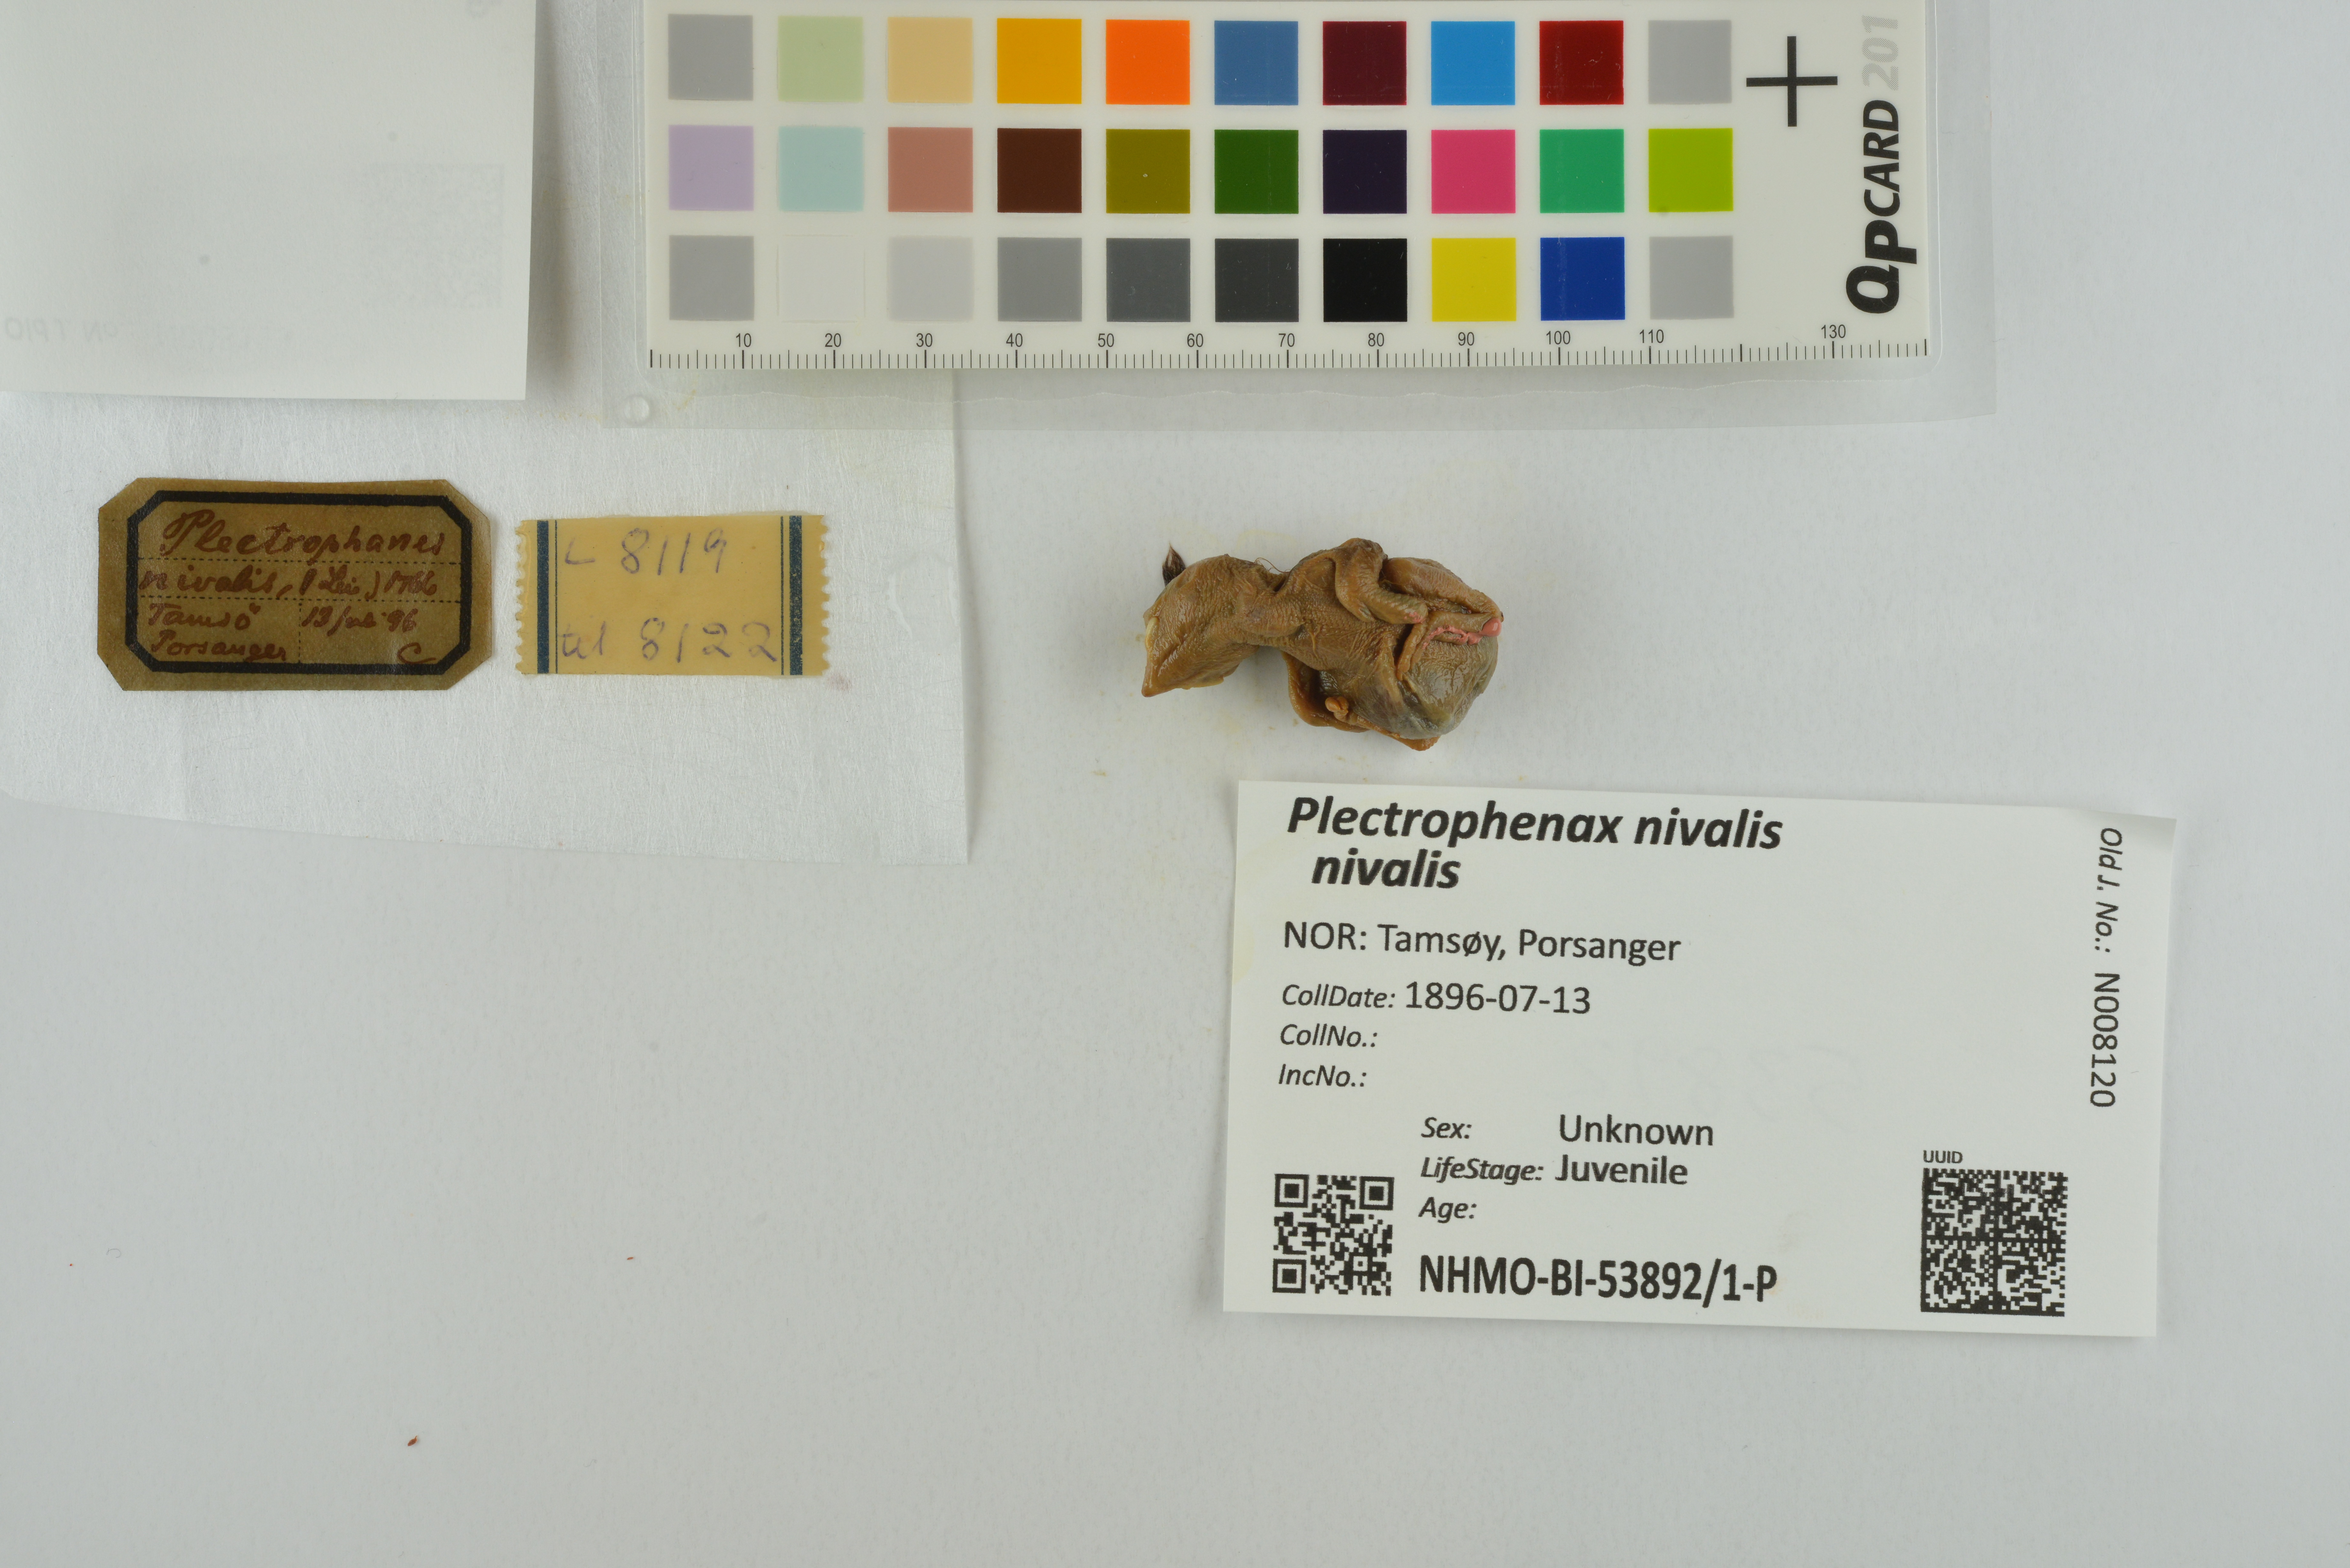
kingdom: Animalia
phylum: Chordata
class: Aves
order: Passeriformes
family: Calcariidae
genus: Plectrophenax
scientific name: Plectrophenax nivalis
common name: Snow bunting
